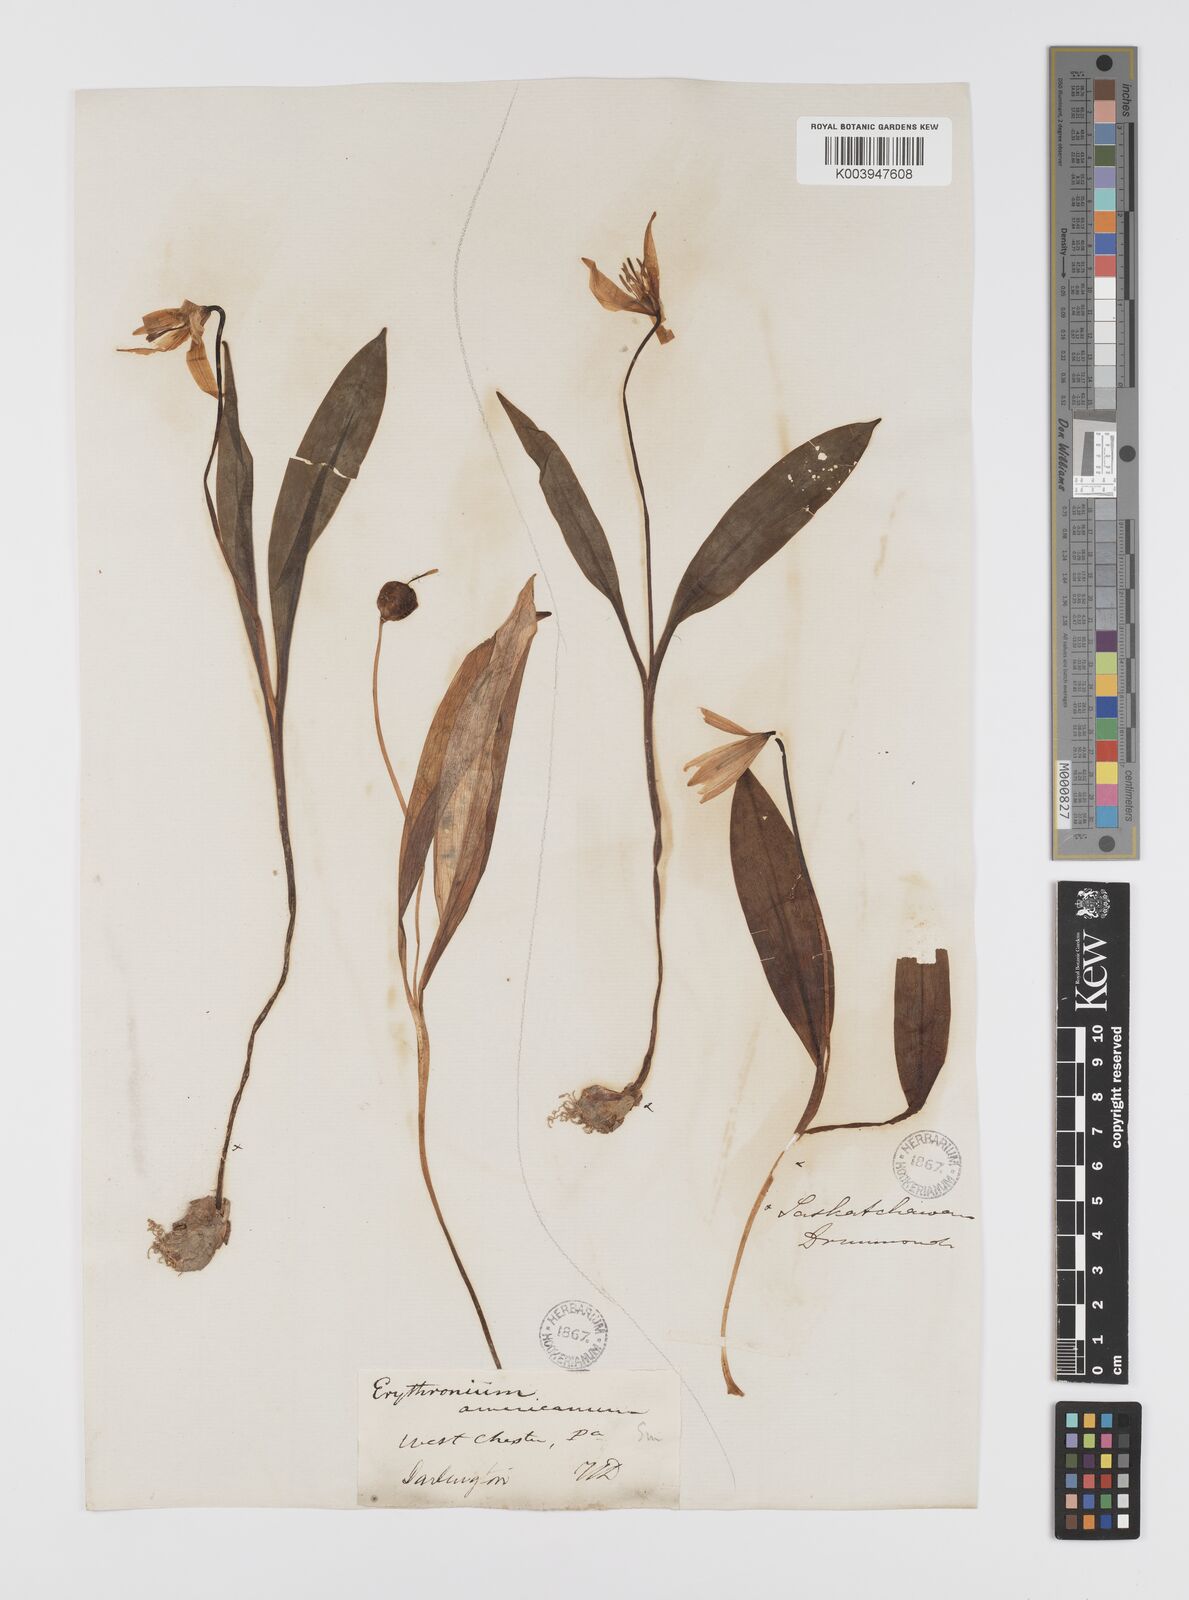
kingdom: Plantae
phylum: Tracheophyta
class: Liliopsida
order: Liliales
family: Liliaceae
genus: Erythronium
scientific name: Erythronium grandiflorum
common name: Avalanche-lily
